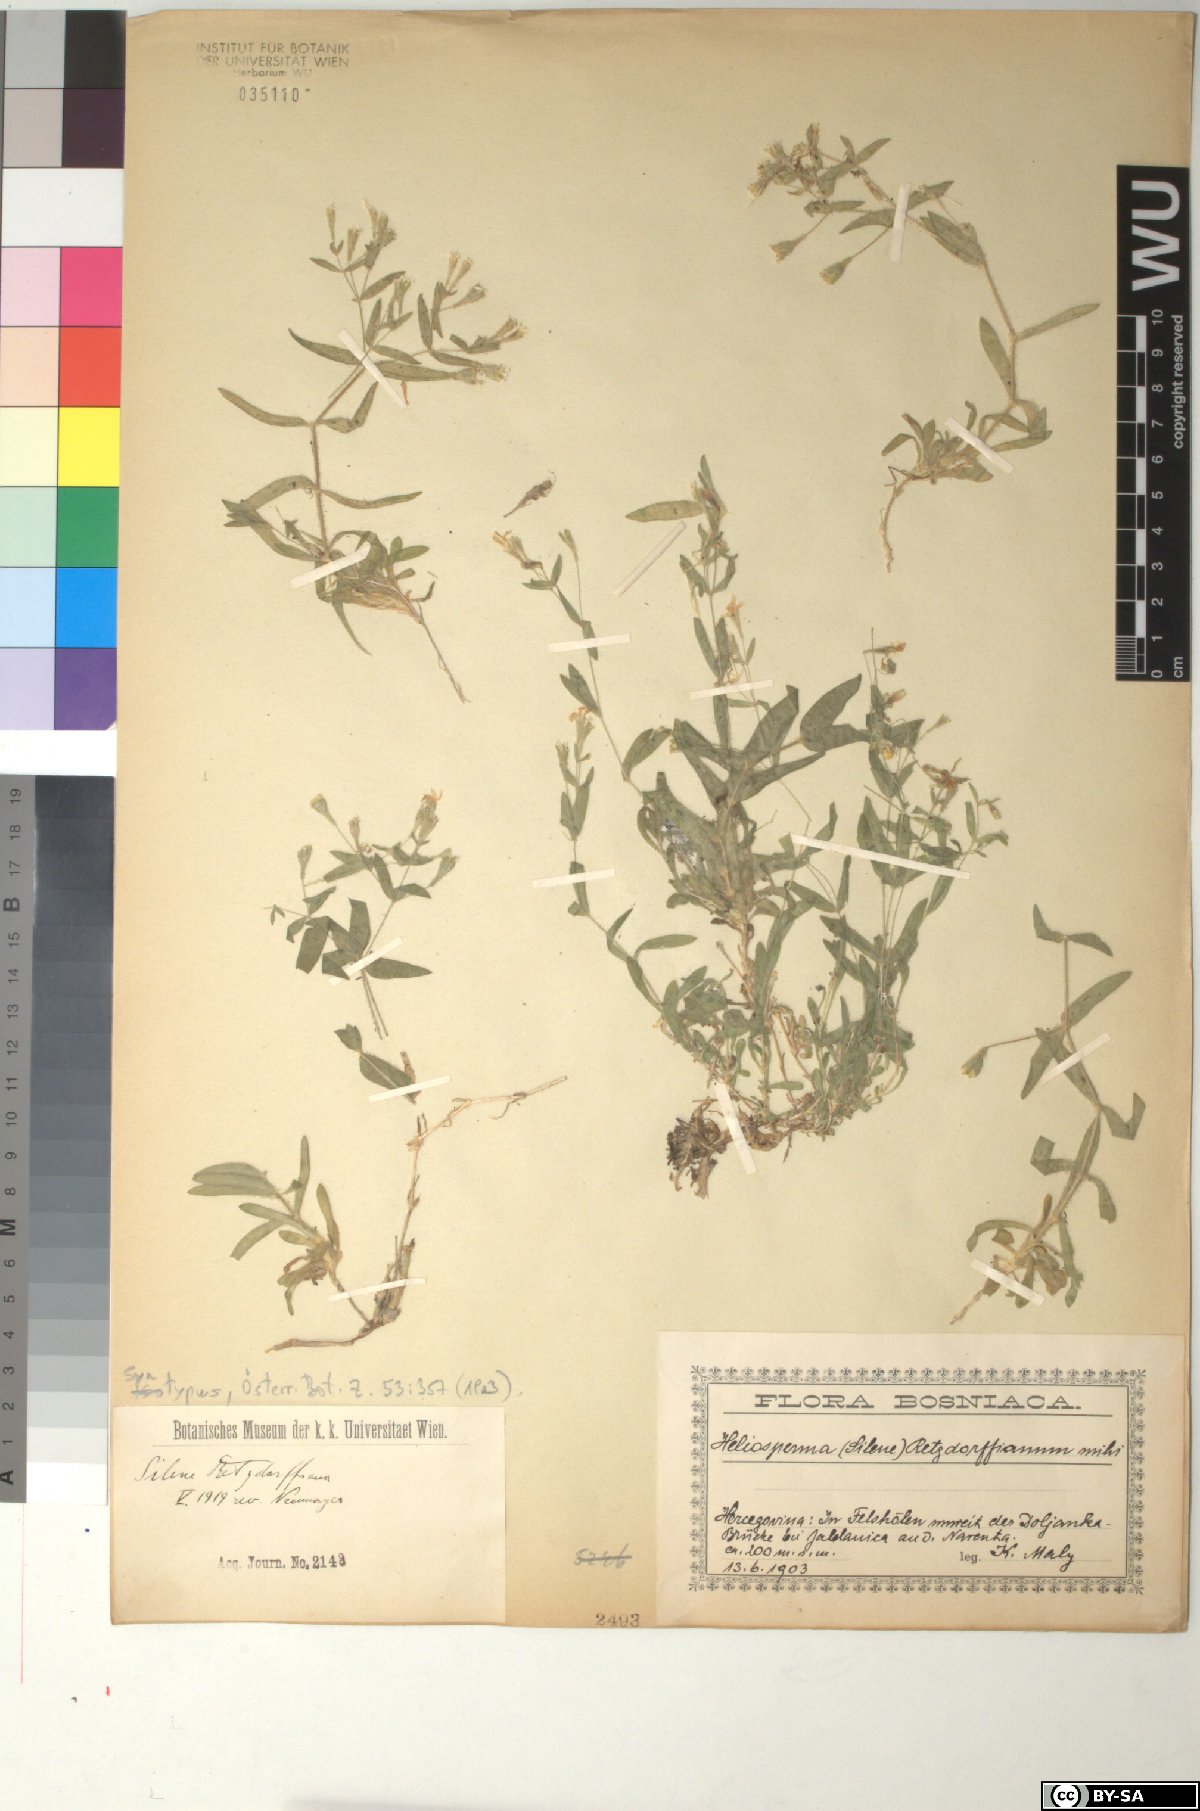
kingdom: Plantae
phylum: Tracheophyta
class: Magnoliopsida
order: Caryophyllales
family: Caryophyllaceae
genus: Heliosperma
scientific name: Heliosperma pusillum
